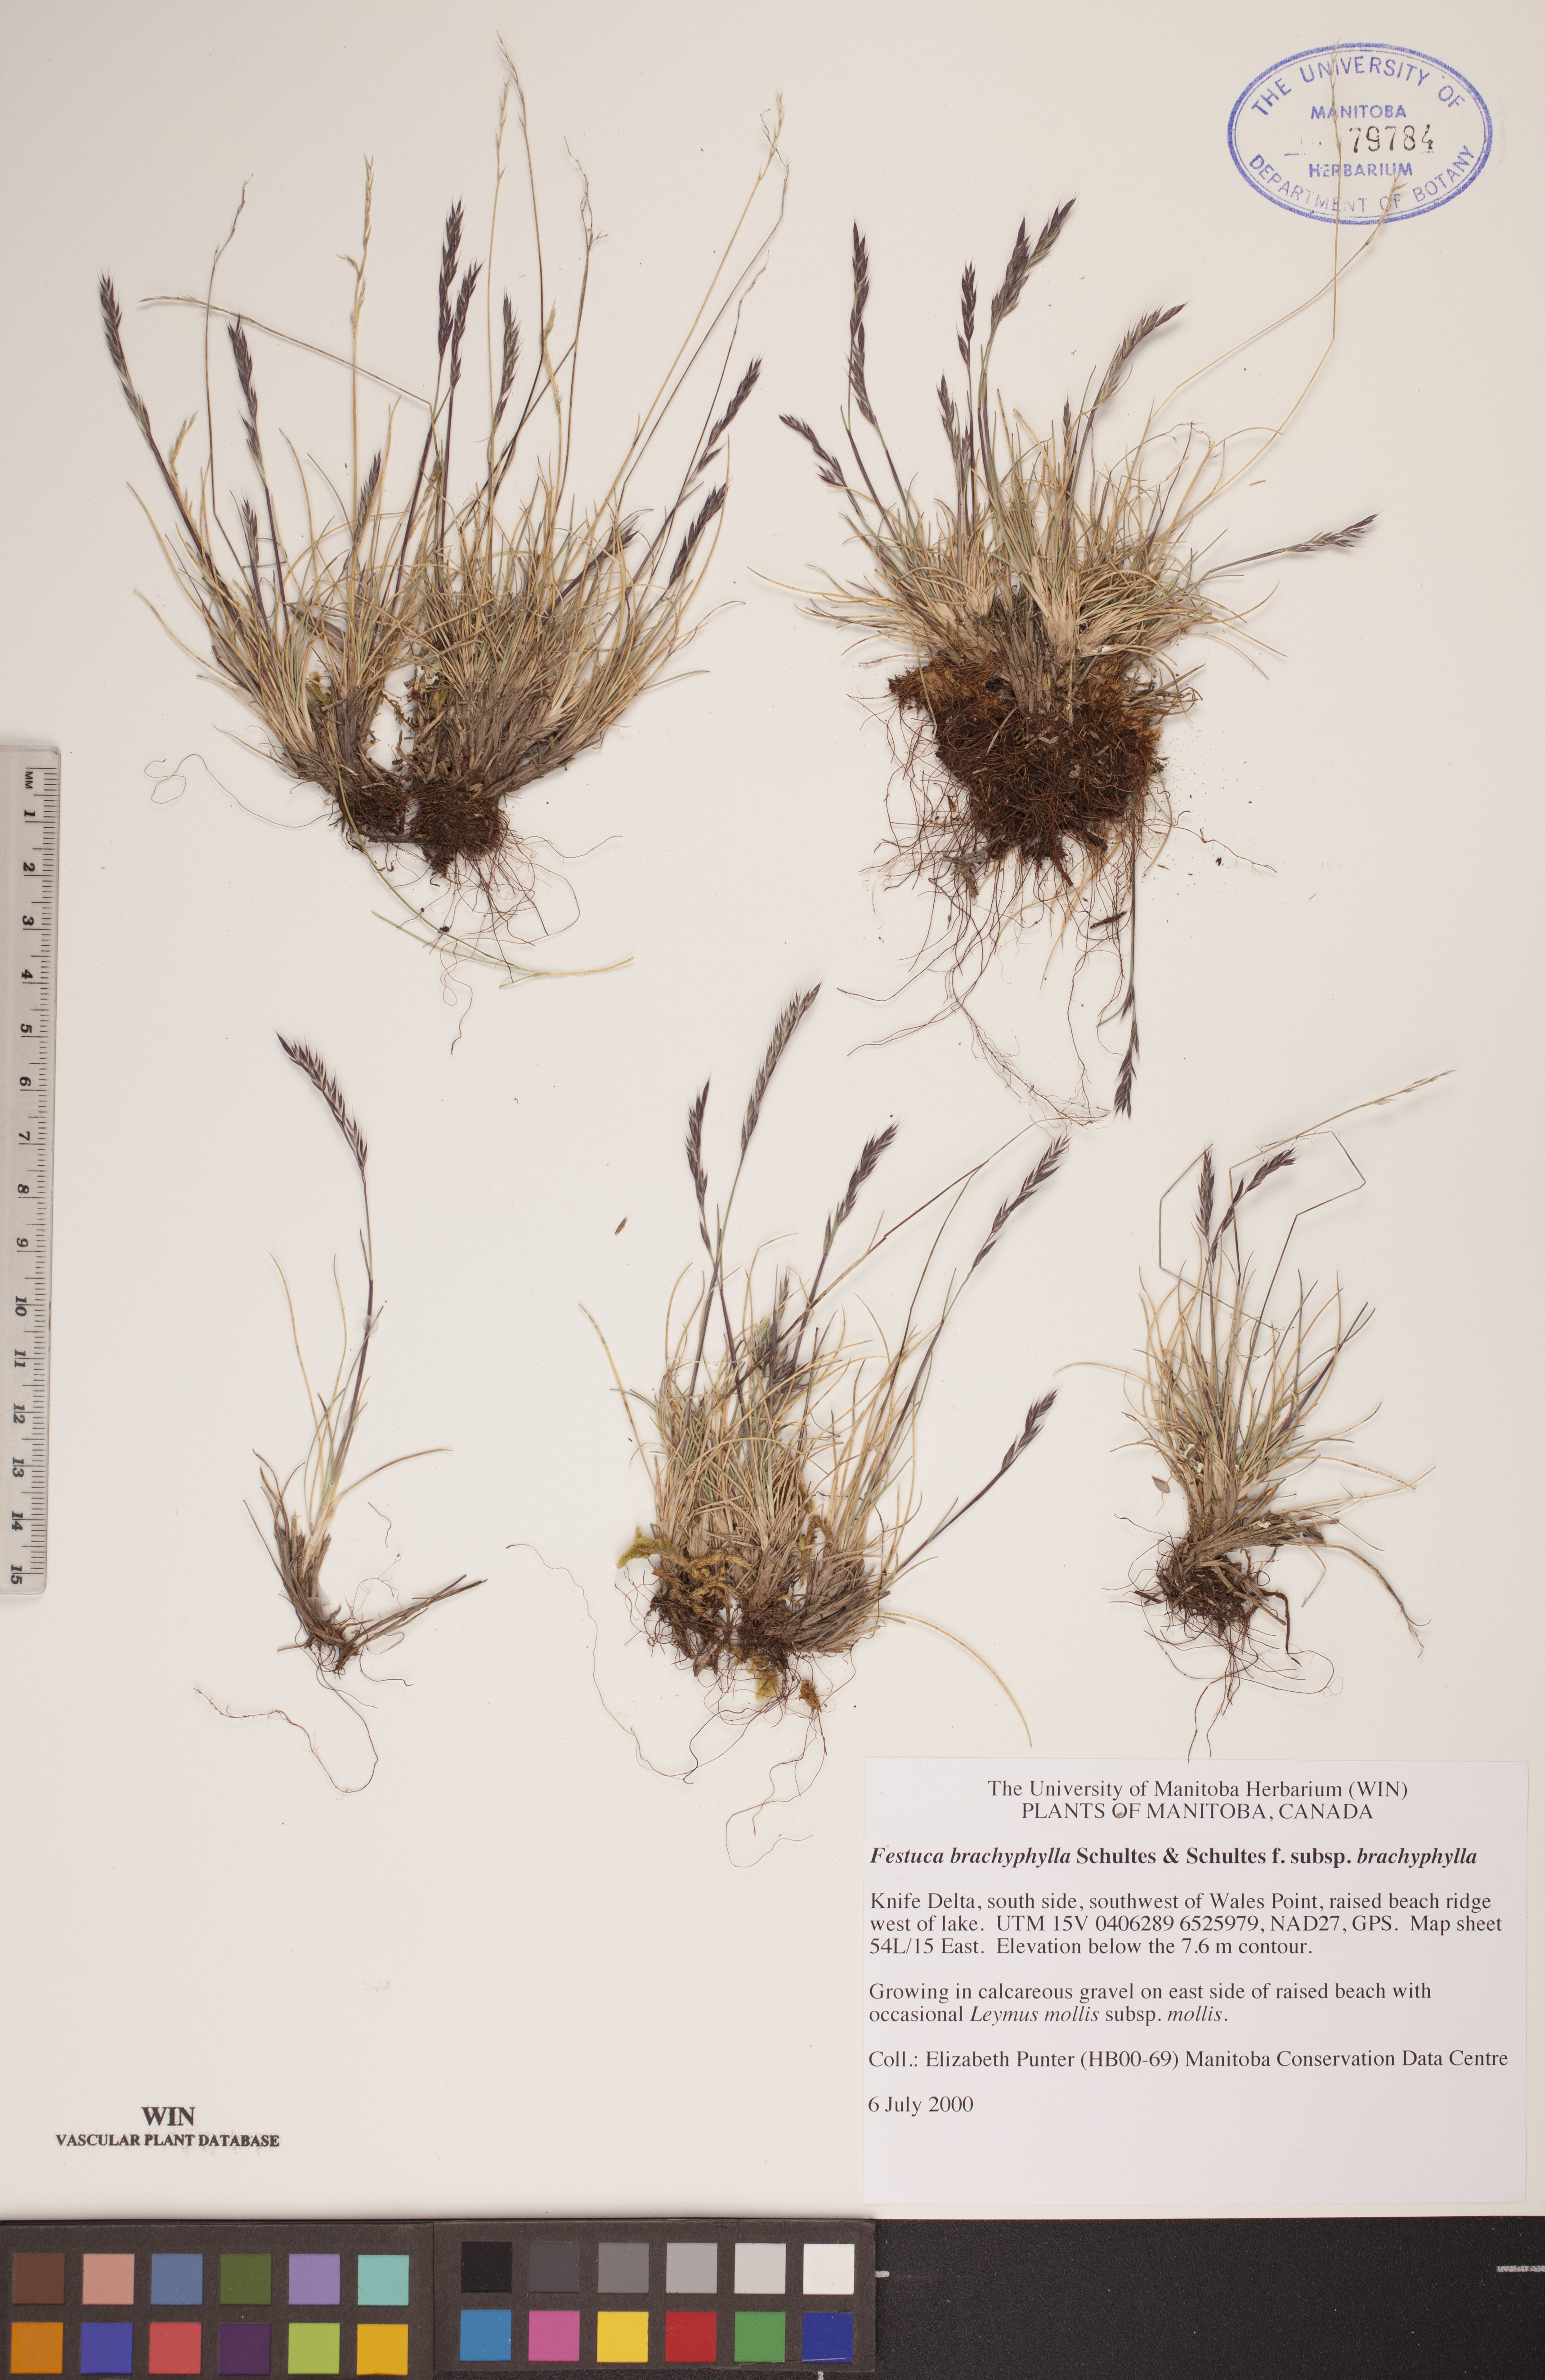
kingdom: Plantae
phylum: Tracheophyta
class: Liliopsida
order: Poales
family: Poaceae
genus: Festuca
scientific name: Festuca brachyphylla
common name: Alpine fescue
